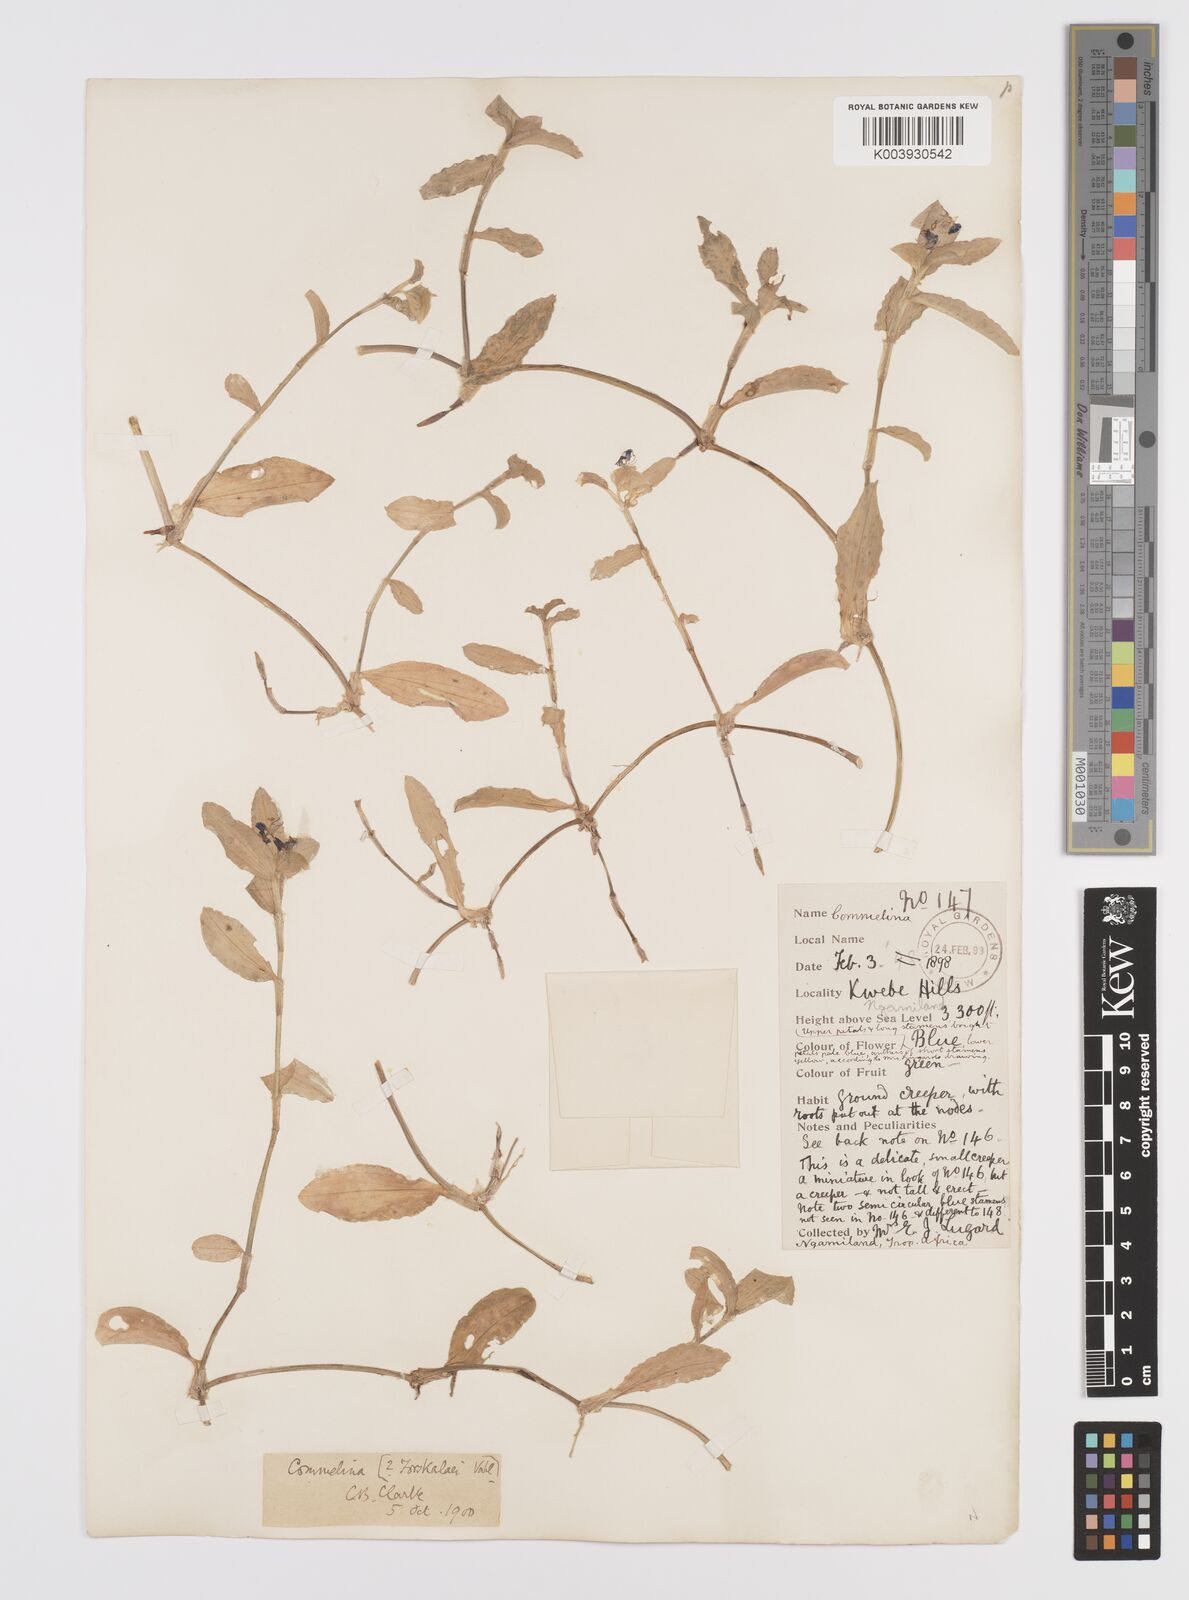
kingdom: Plantae
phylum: Tracheophyta
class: Liliopsida
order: Commelinales
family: Commelinaceae
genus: Commelina
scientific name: Commelina forskaolii
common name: Rat's ear
